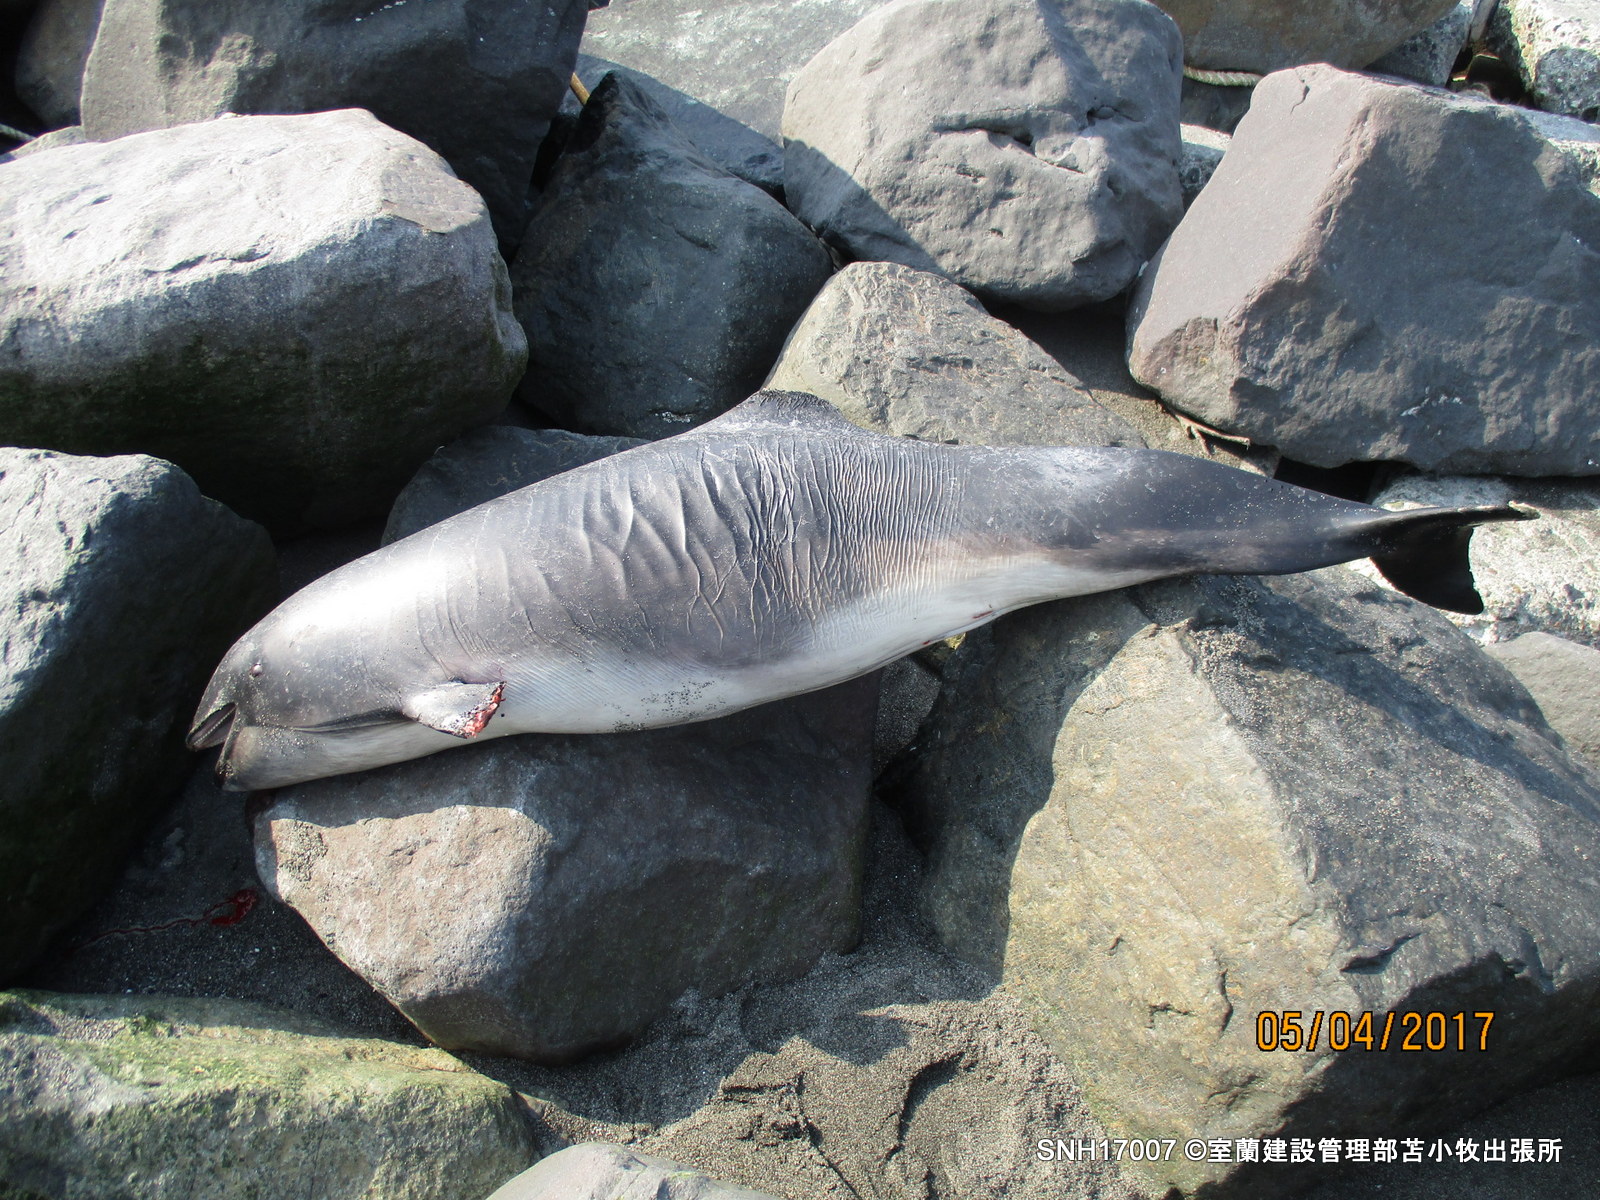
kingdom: Animalia
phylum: Chordata
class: Mammalia
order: Cetacea
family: Phocoenidae
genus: Phocoena
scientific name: Phocoena phocoena
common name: Harbour porpoise
